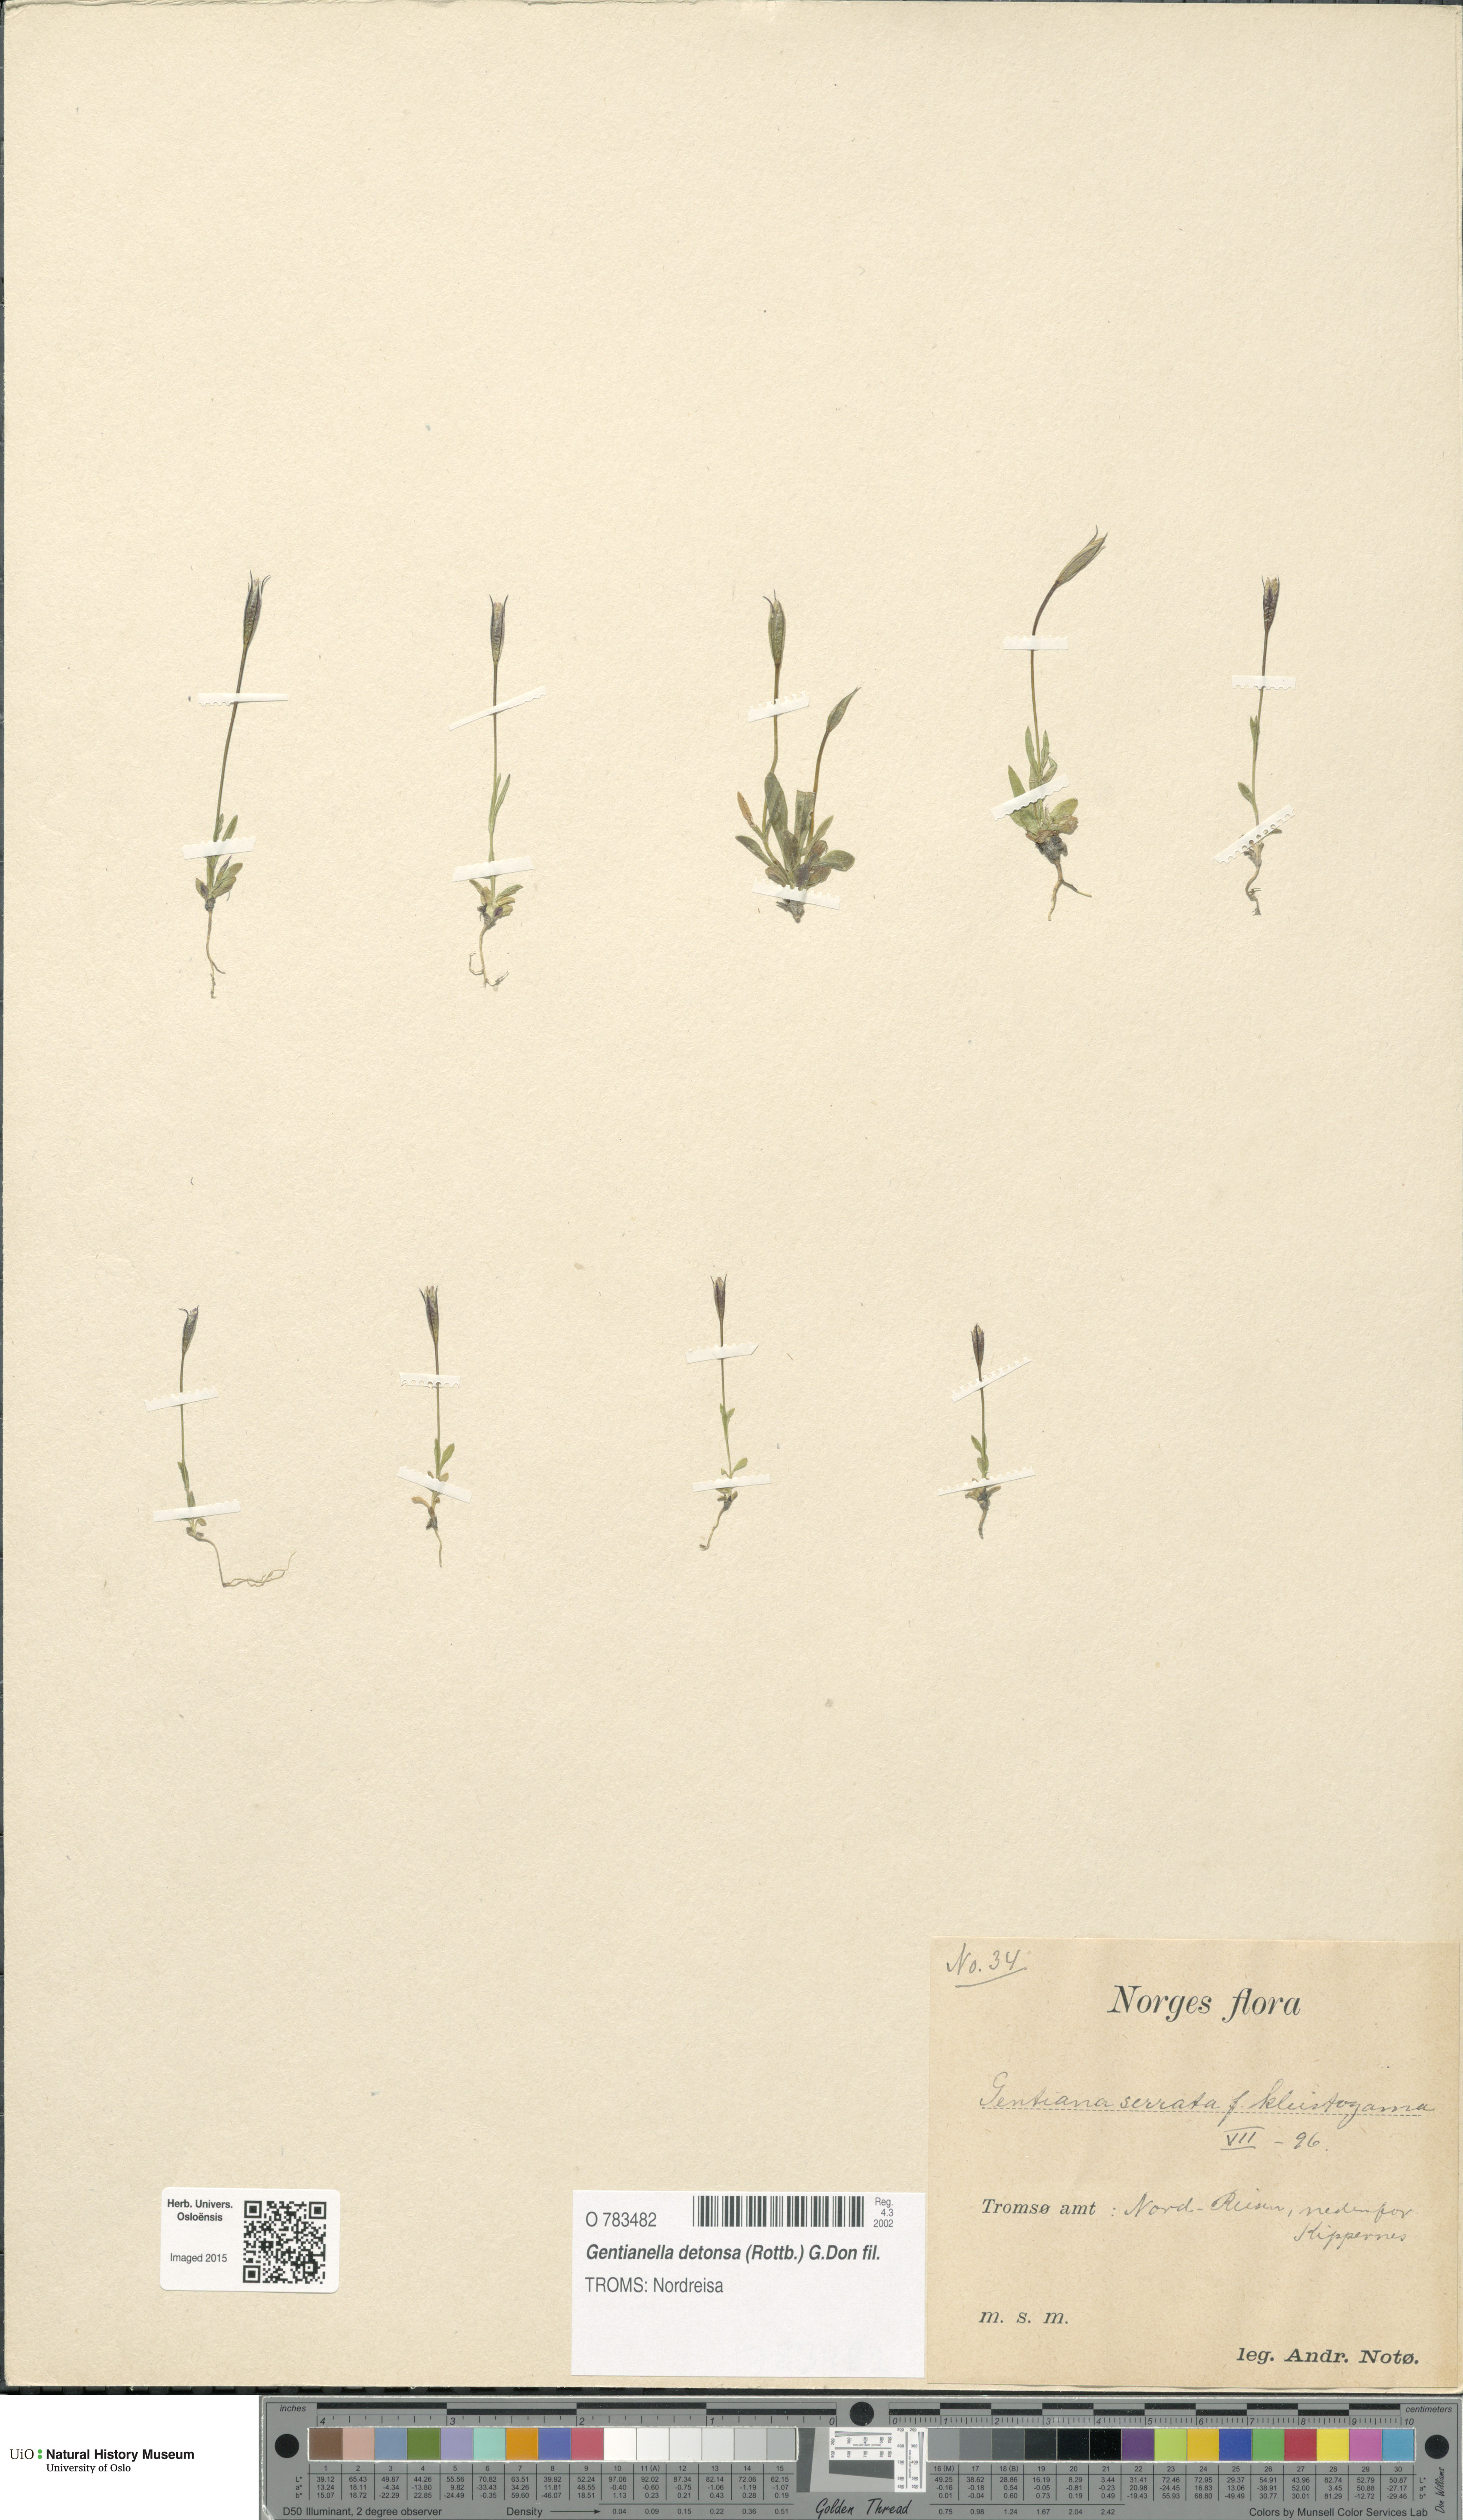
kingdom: Plantae
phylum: Tracheophyta
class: Magnoliopsida
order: Gentianales
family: Gentianaceae
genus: Gentianopsis
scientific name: Gentianopsis detonsa
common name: Fringed-gentian
